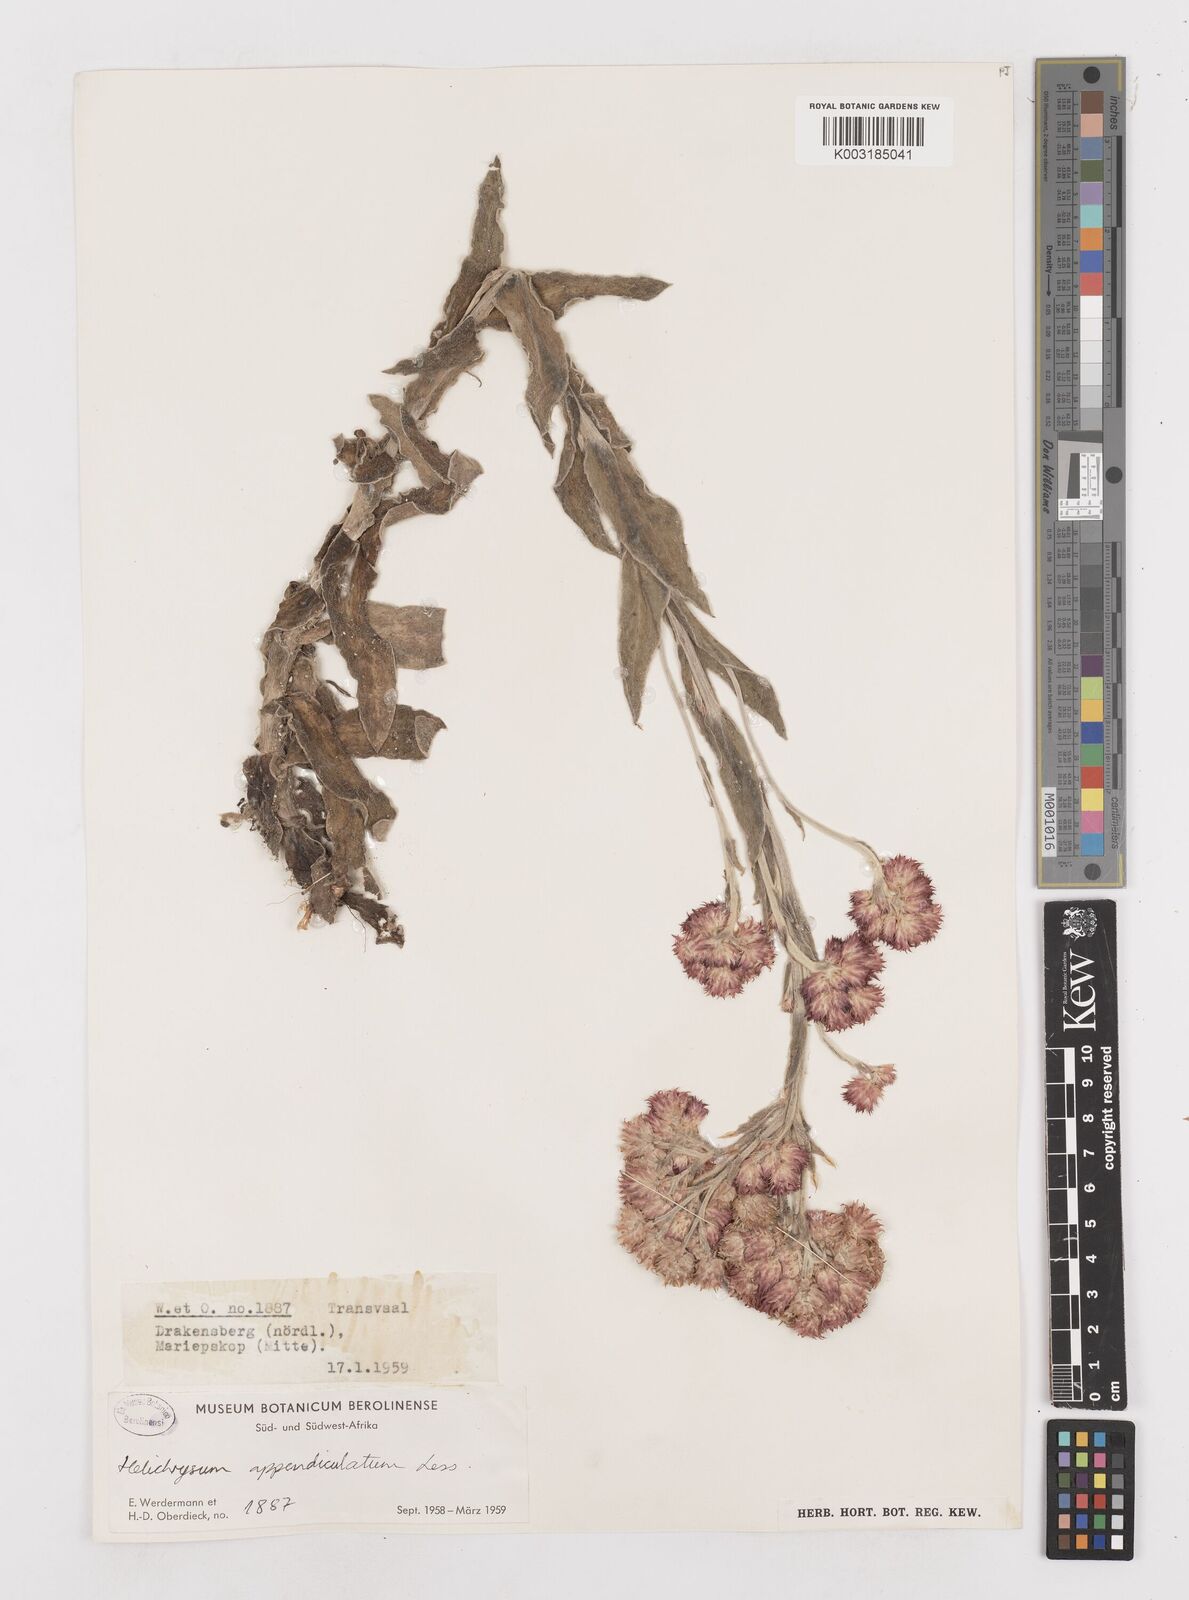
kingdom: Plantae
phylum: Tracheophyta
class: Magnoliopsida
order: Asterales
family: Asteraceae
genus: Helichrysum
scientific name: Helichrysum appendiculatum
